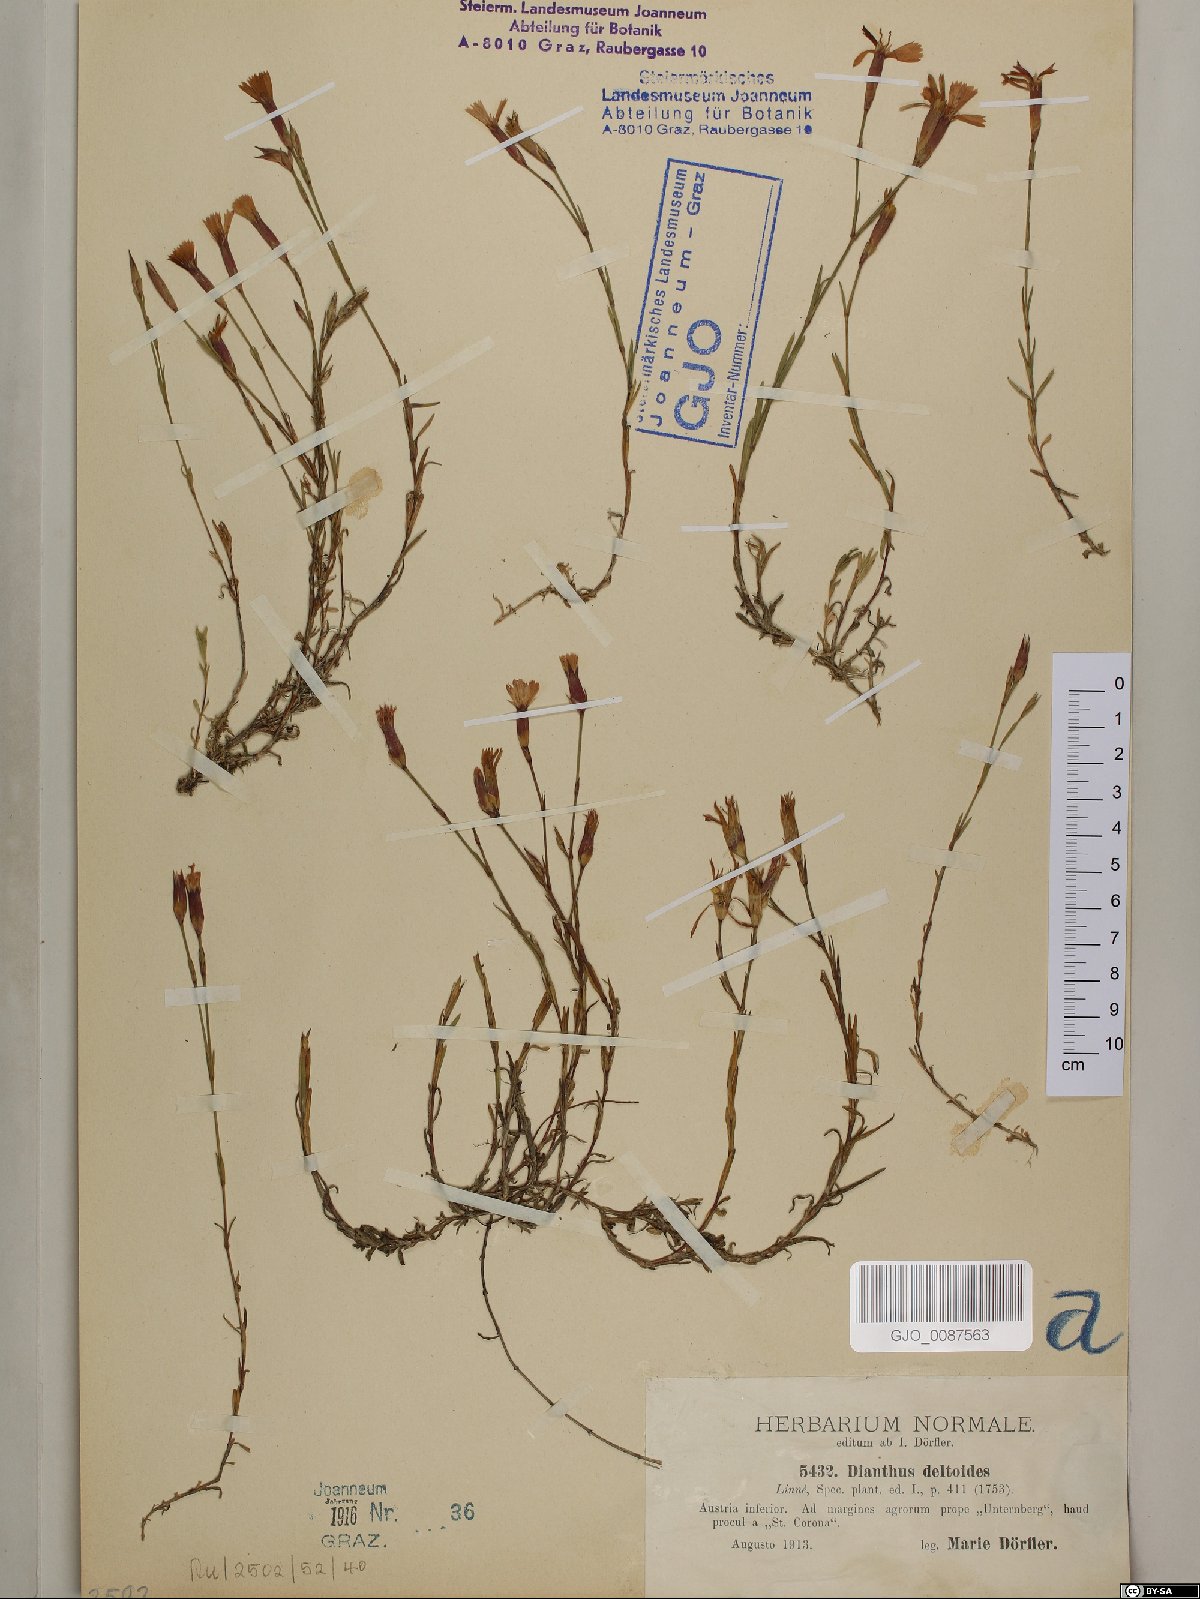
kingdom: Plantae
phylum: Tracheophyta
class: Magnoliopsida
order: Caryophyllales
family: Caryophyllaceae
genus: Dianthus
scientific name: Dianthus deltoides
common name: Maiden pink
